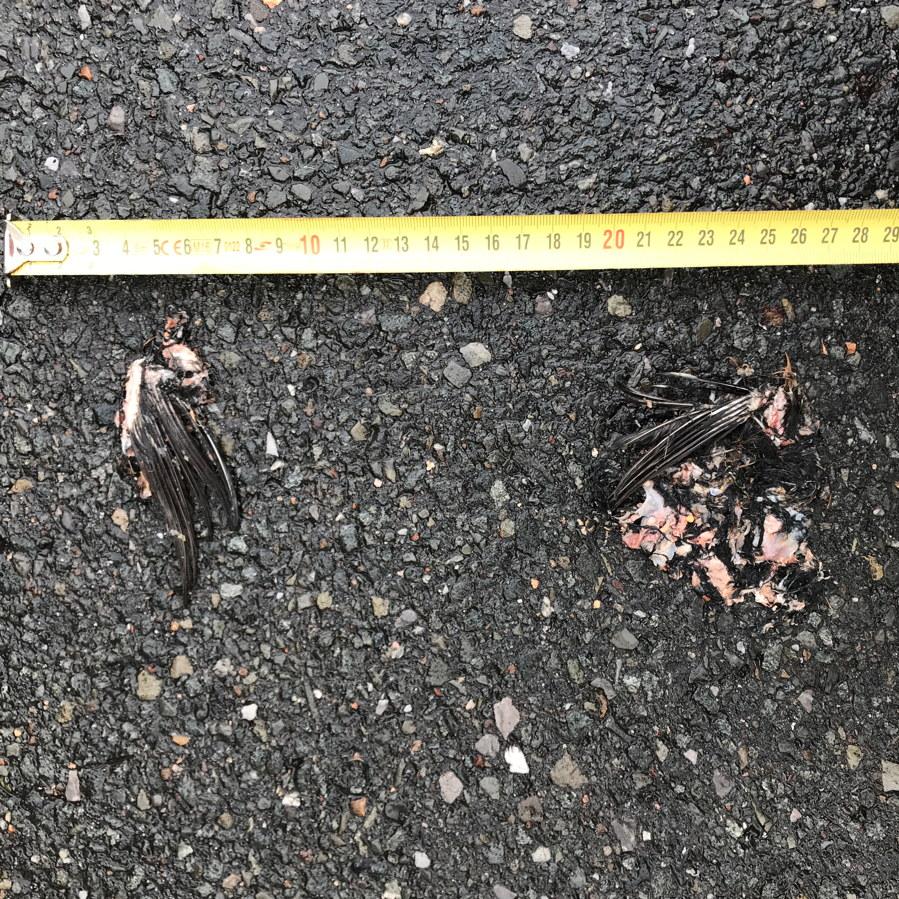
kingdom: Animalia
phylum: Chordata
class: Aves
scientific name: Aves
